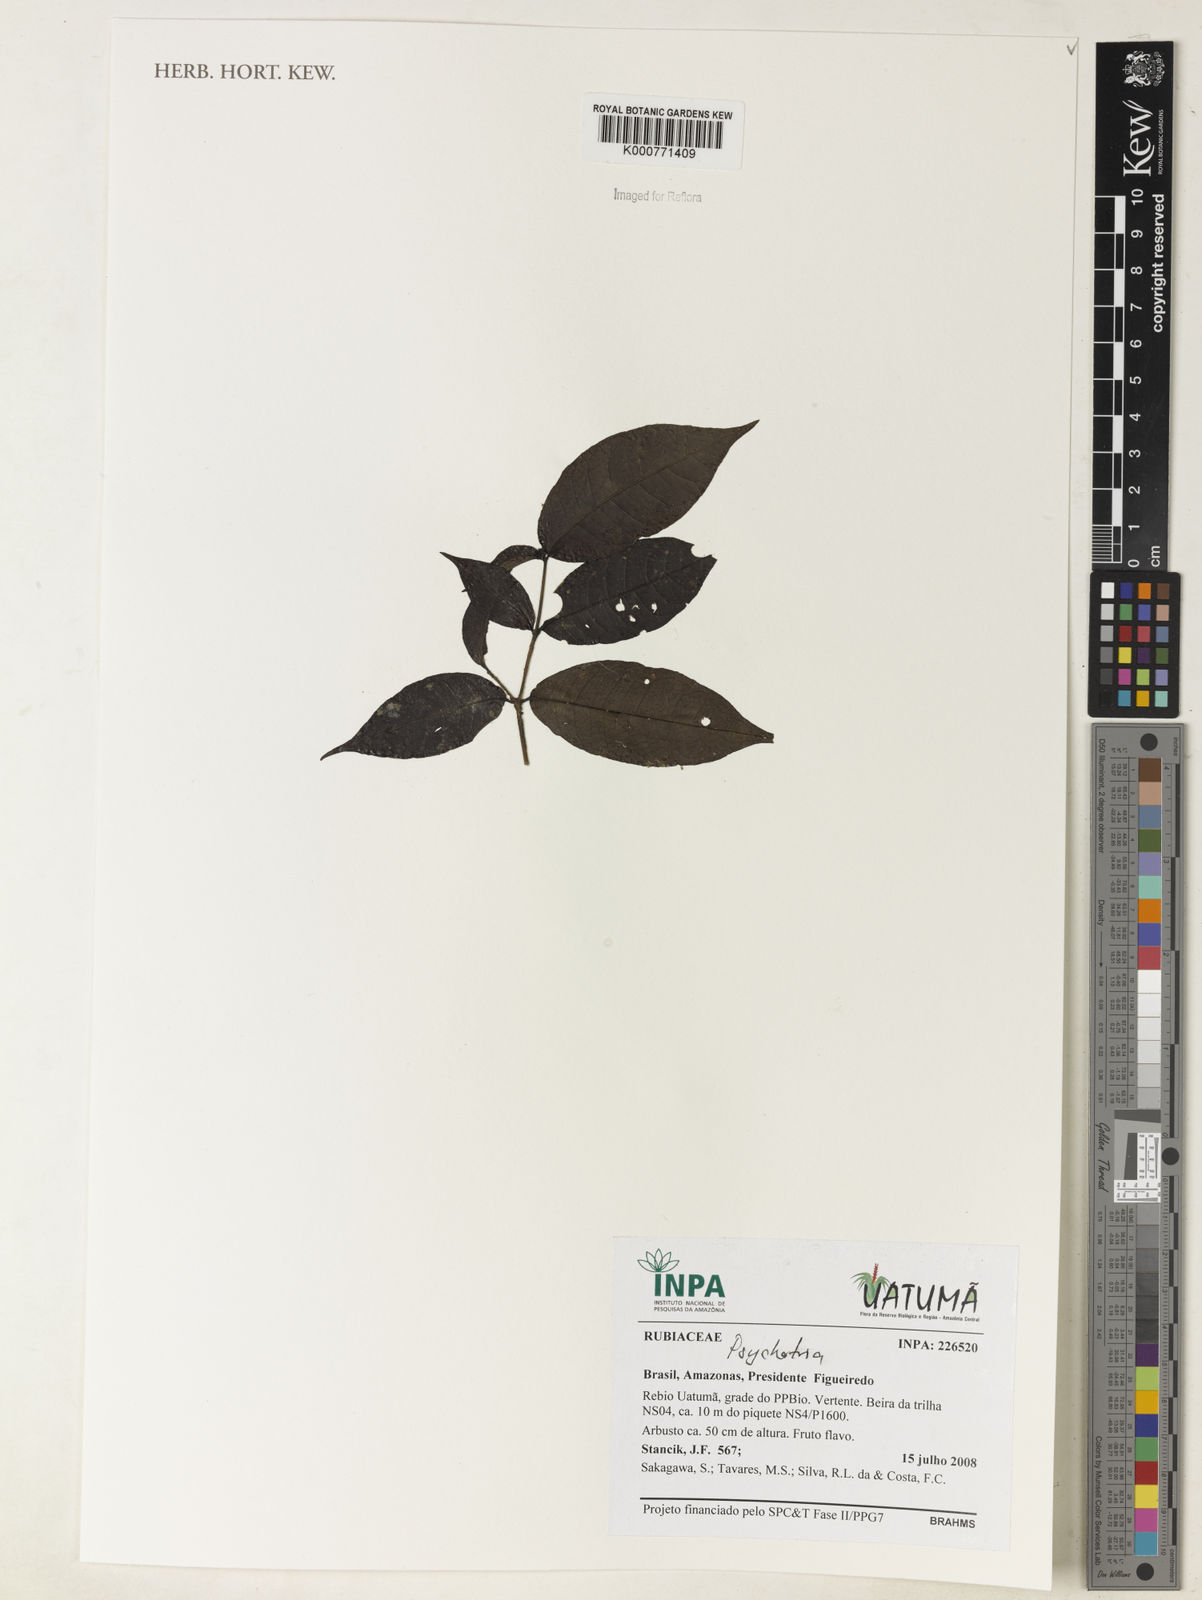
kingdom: Plantae
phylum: Tracheophyta
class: Magnoliopsida
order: Gentianales
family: Rubiaceae
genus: Psychotria
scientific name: Psychotria
